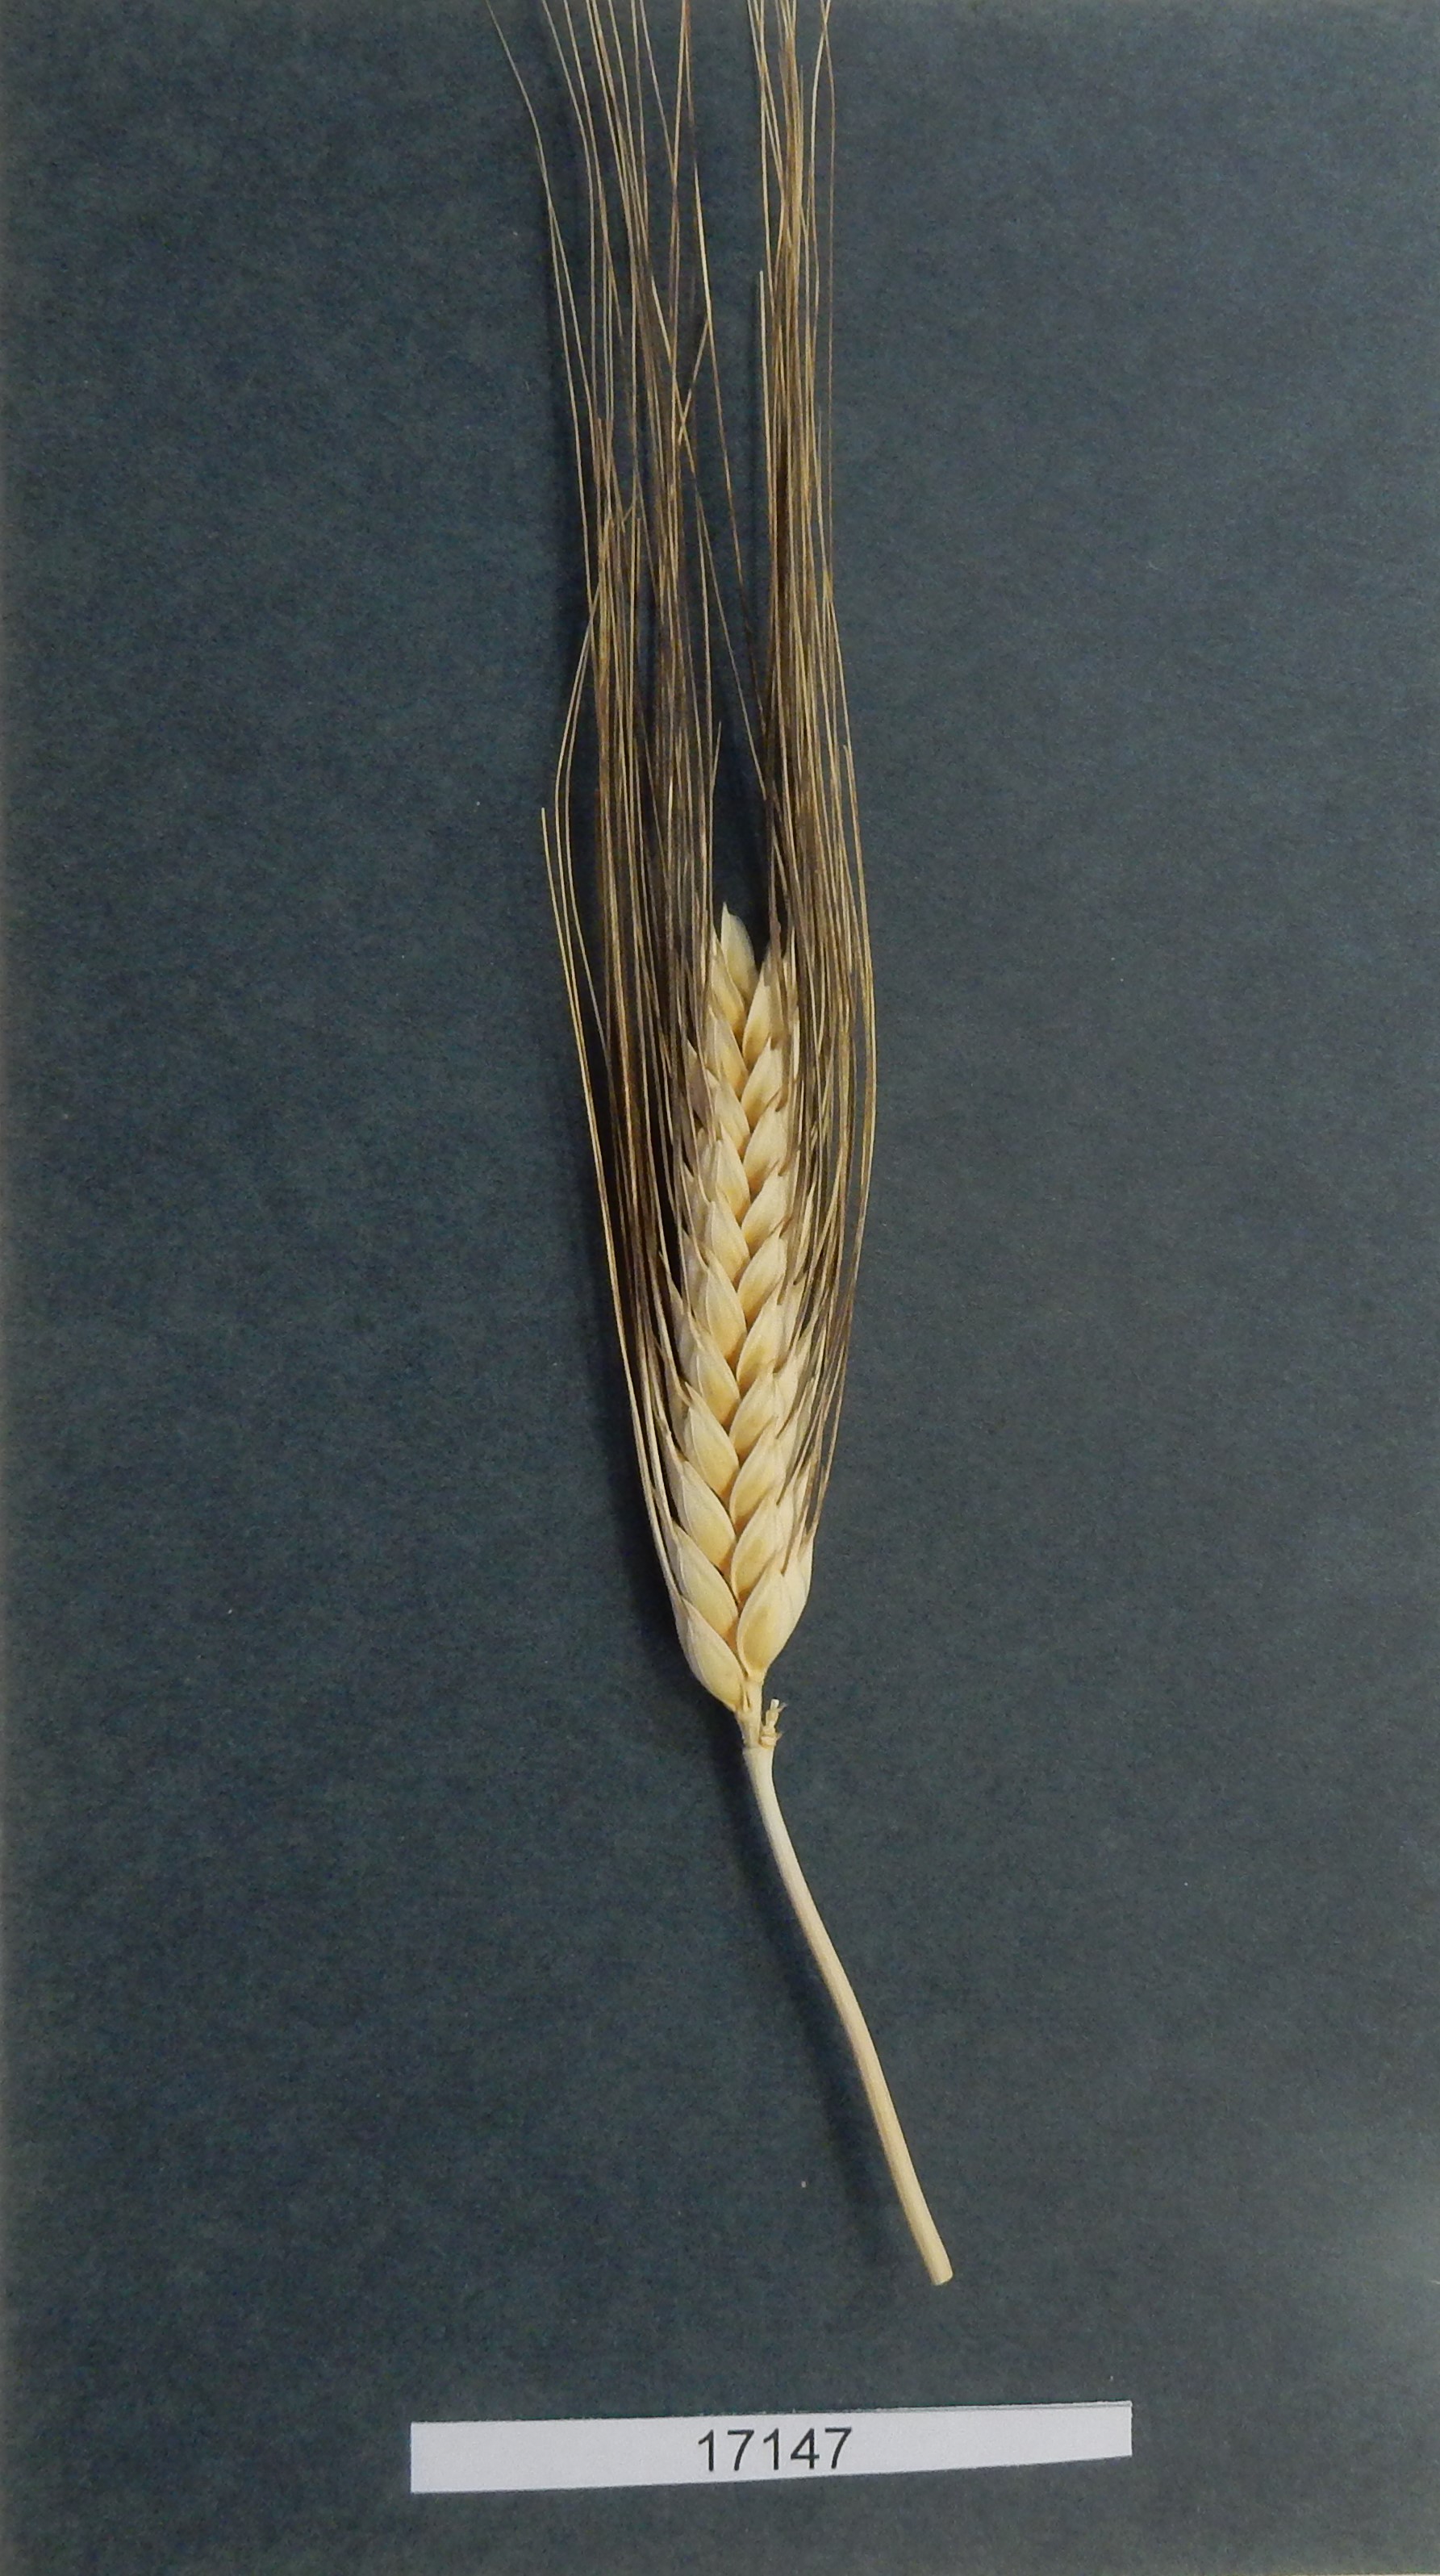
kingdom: Plantae
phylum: Tracheophyta
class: Liliopsida
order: Poales
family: Poaceae
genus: Triticum
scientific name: Triticum
